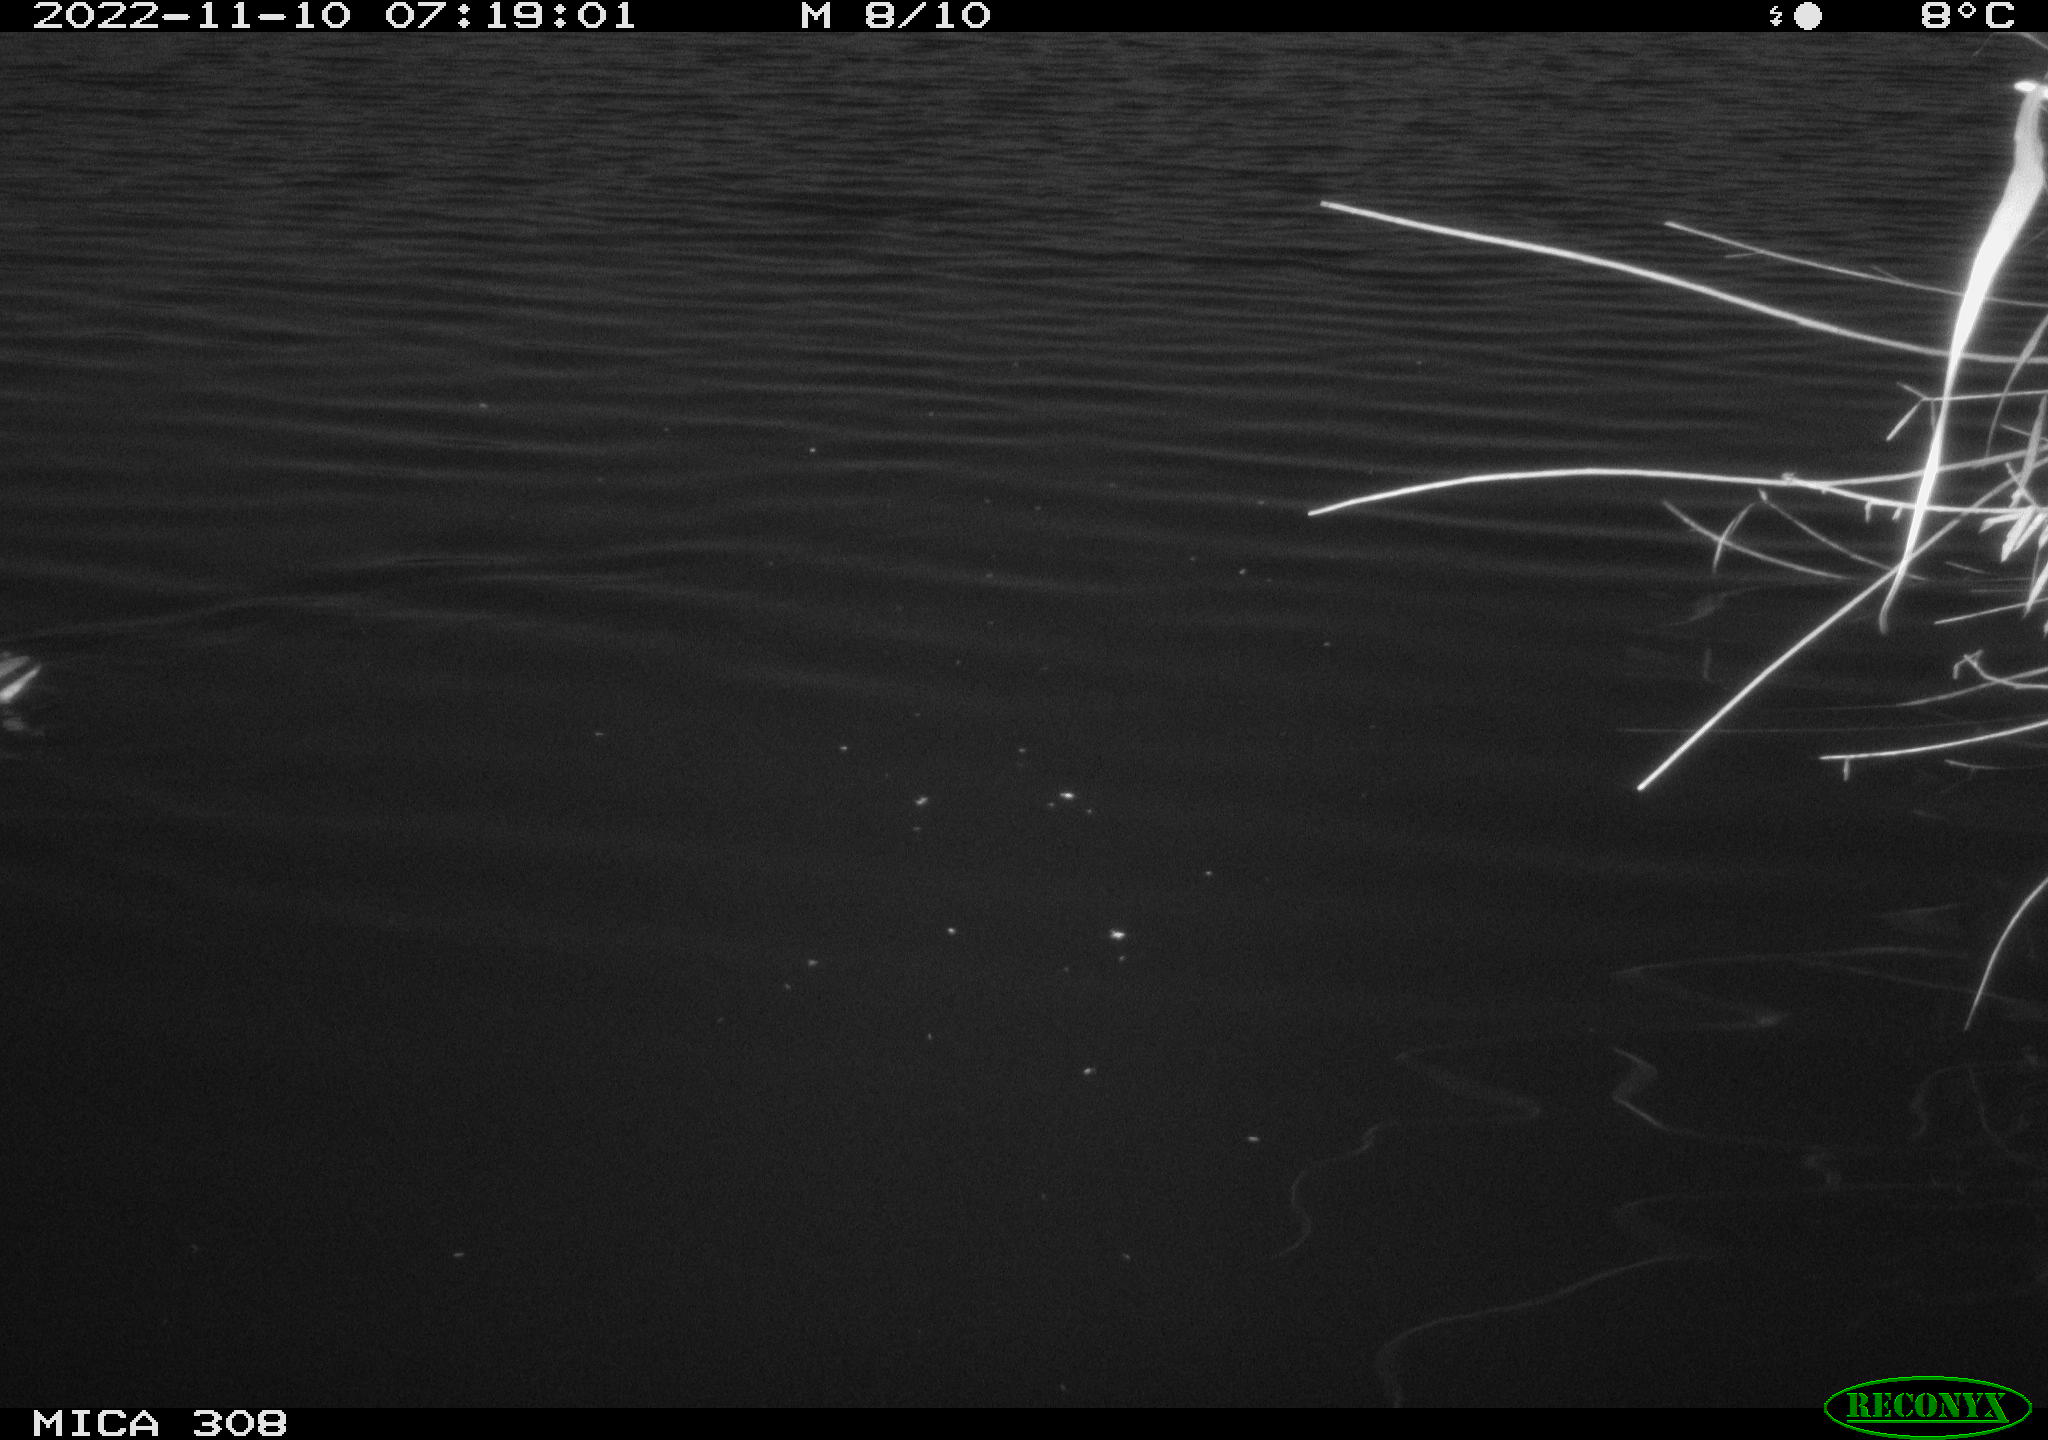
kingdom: Animalia
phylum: Chordata
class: Aves
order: Gruiformes
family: Rallidae
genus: Gallinula
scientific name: Gallinula chloropus
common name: Common moorhen
